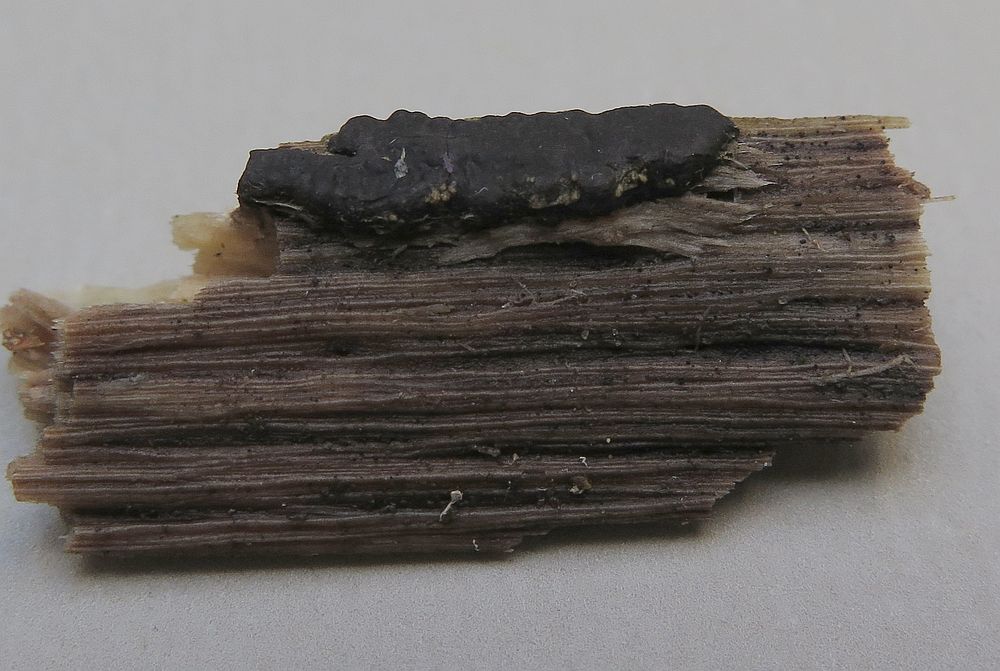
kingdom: Fungi
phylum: Ascomycota
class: Sordariomycetes
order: Xylariales
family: Xylariaceae
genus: Nemania
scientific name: Nemania serpens
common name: almindelig kuldyne
